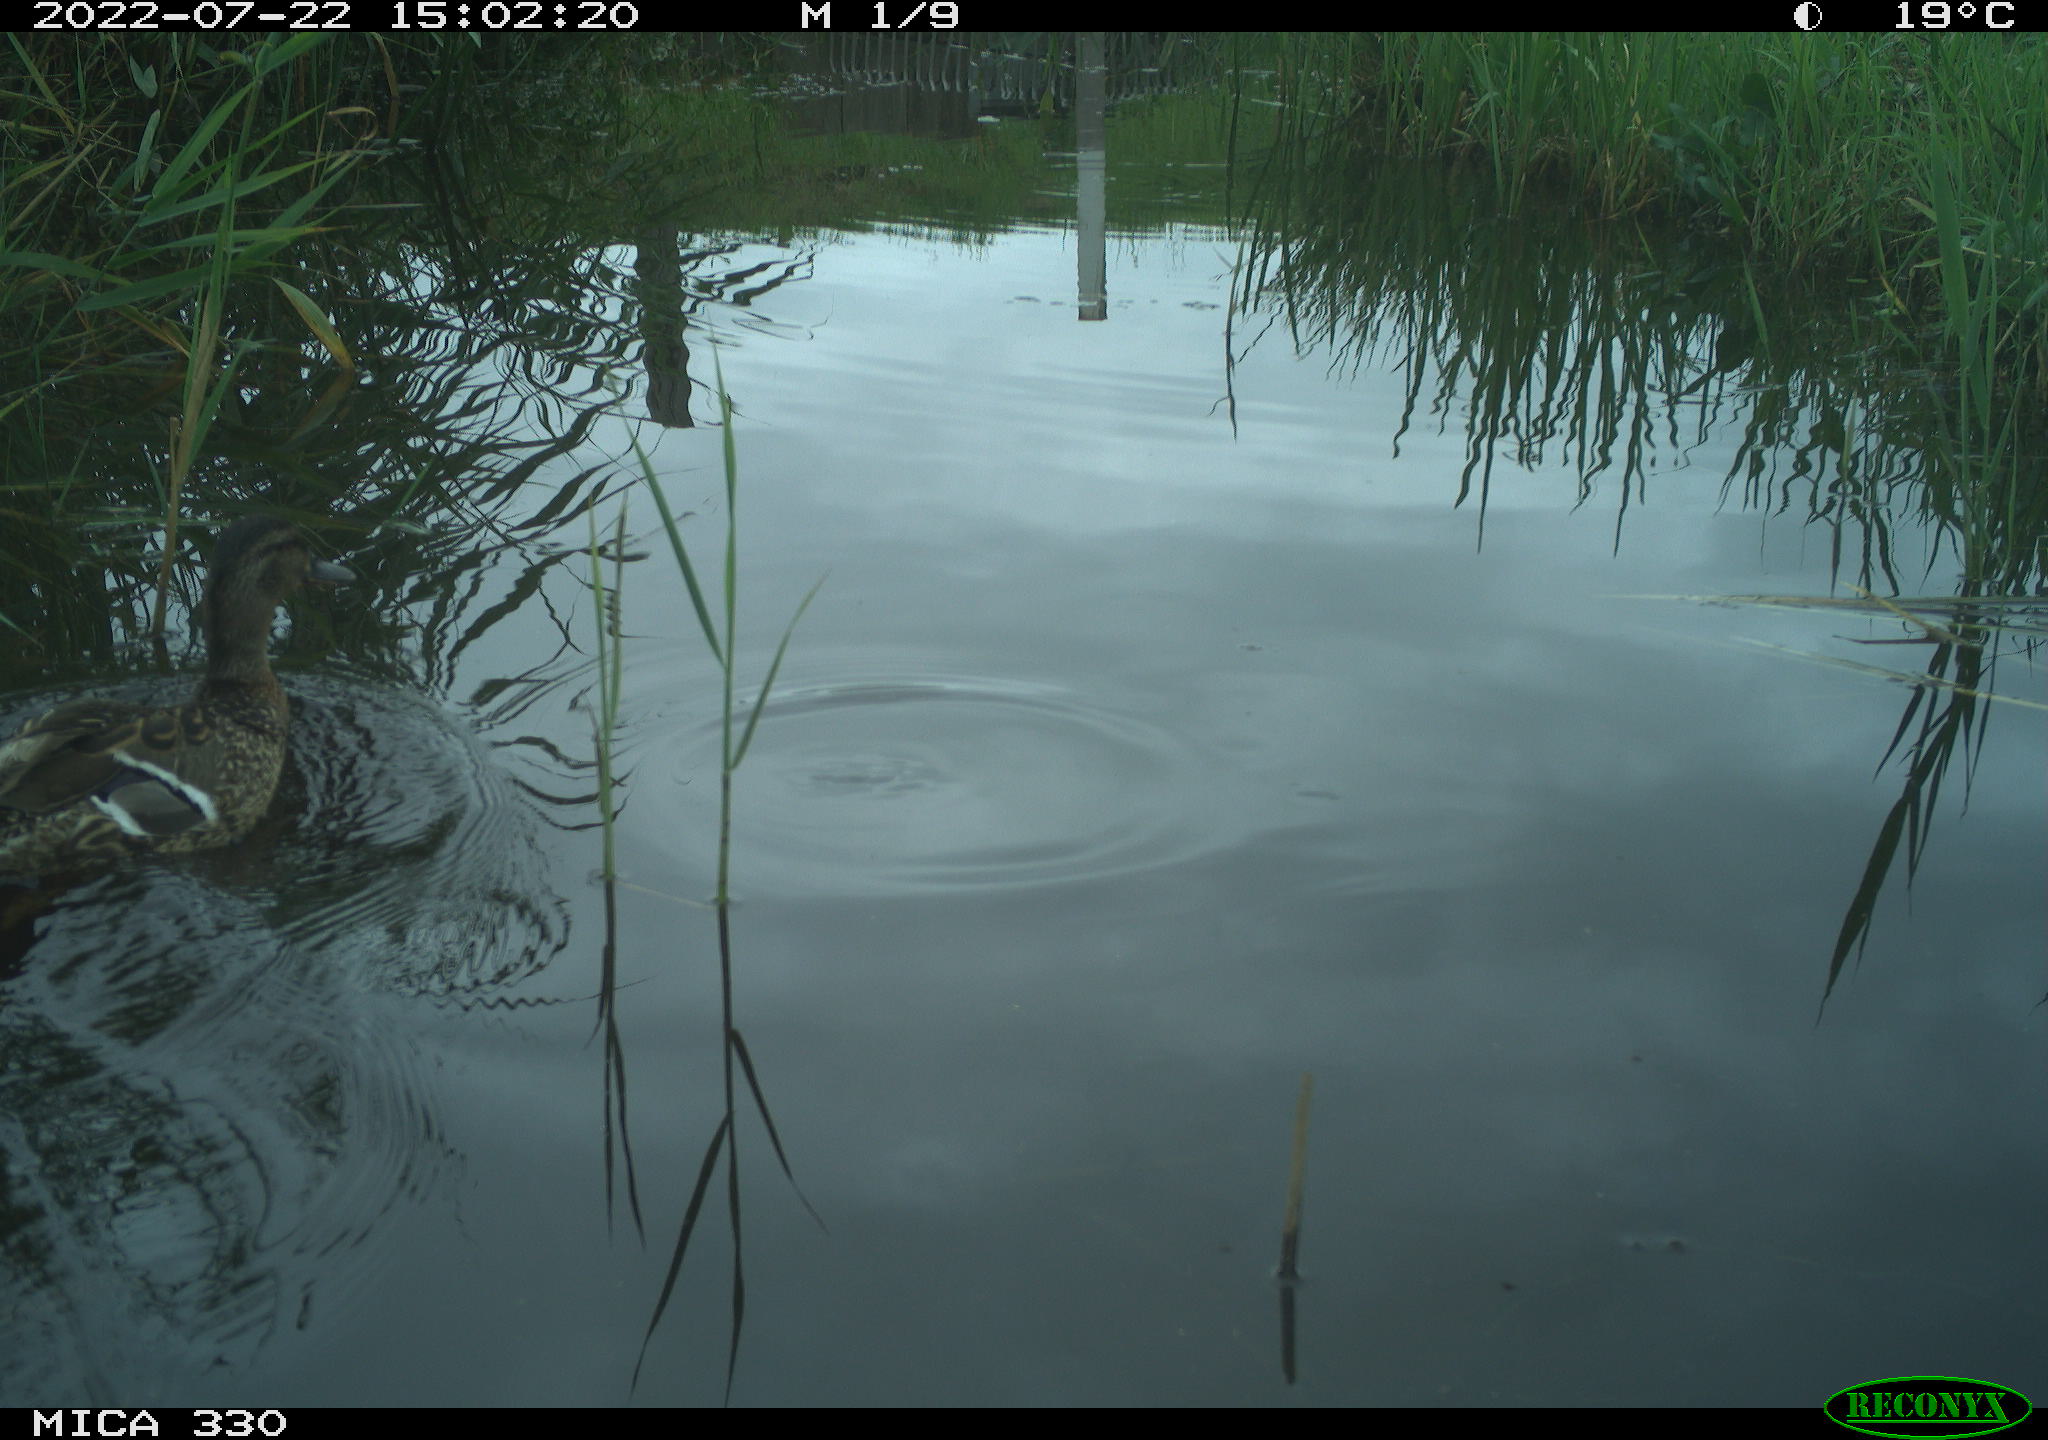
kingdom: Animalia
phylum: Chordata
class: Aves
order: Anseriformes
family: Anatidae
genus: Anas
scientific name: Anas platyrhynchos
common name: Mallard
